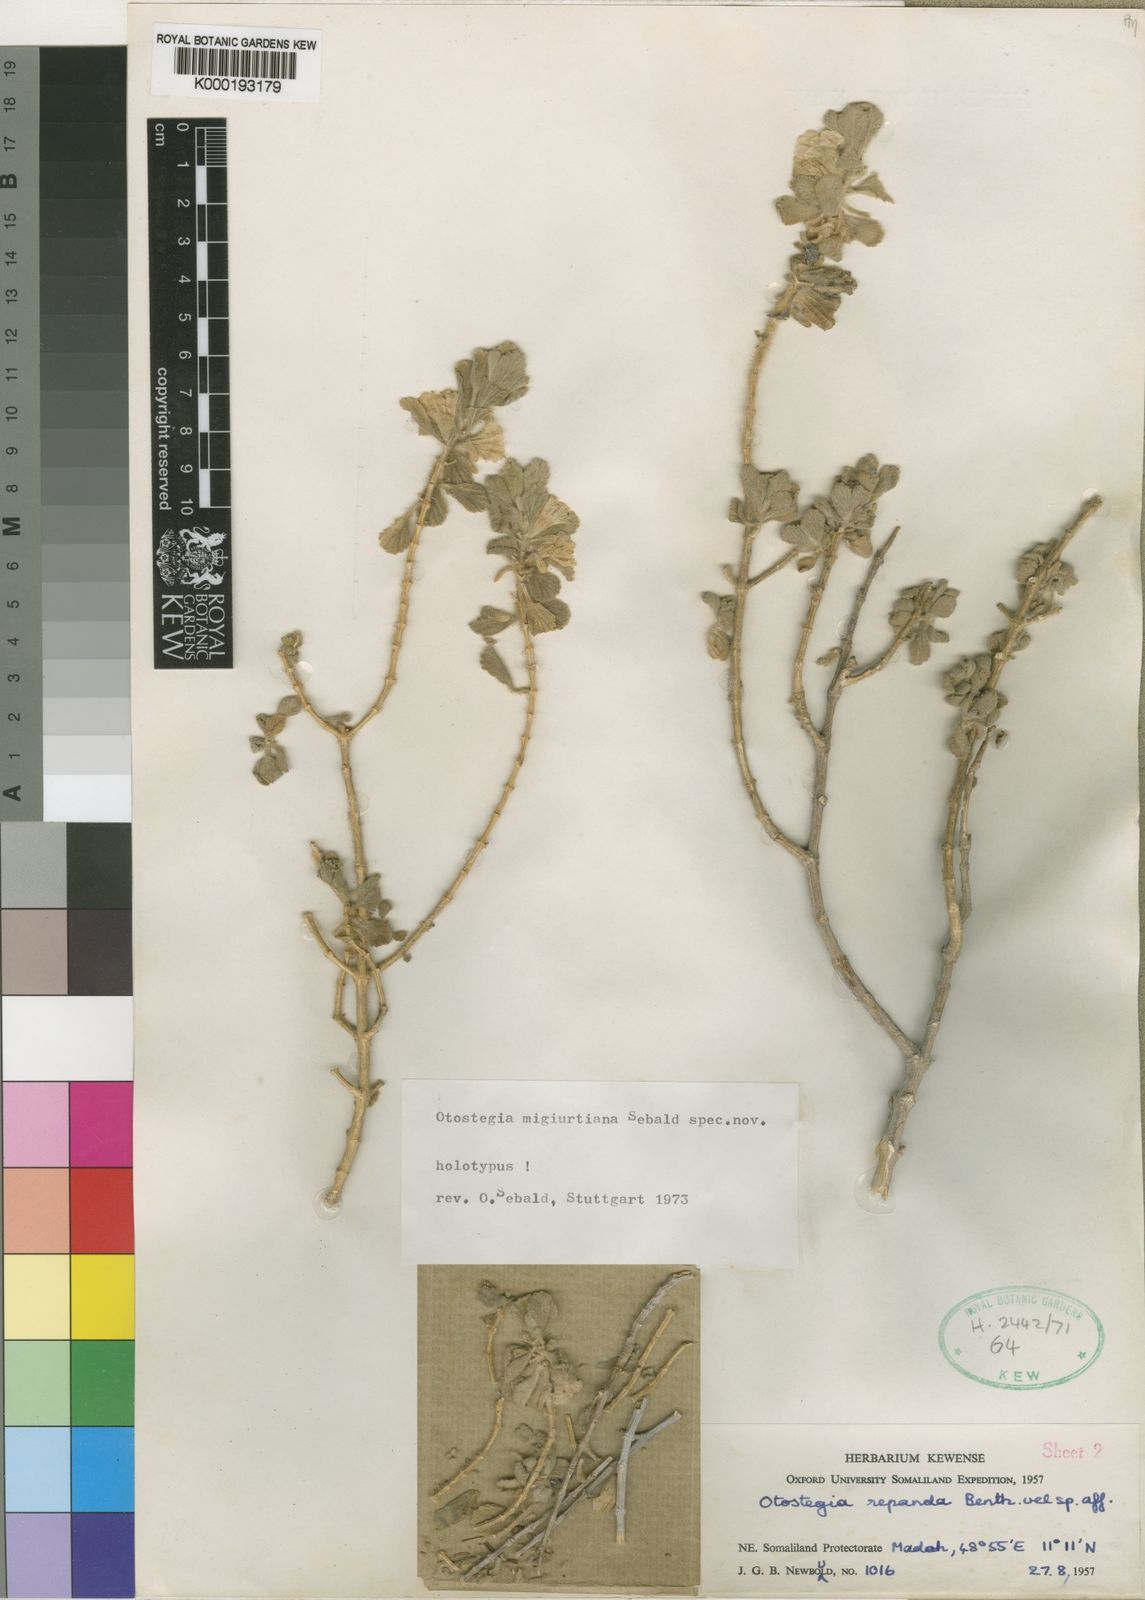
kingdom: Plantae
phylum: Tracheophyta
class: Magnoliopsida
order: Lamiales
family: Lamiaceae
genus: Otostegia
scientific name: Otostegia migiurtiana
